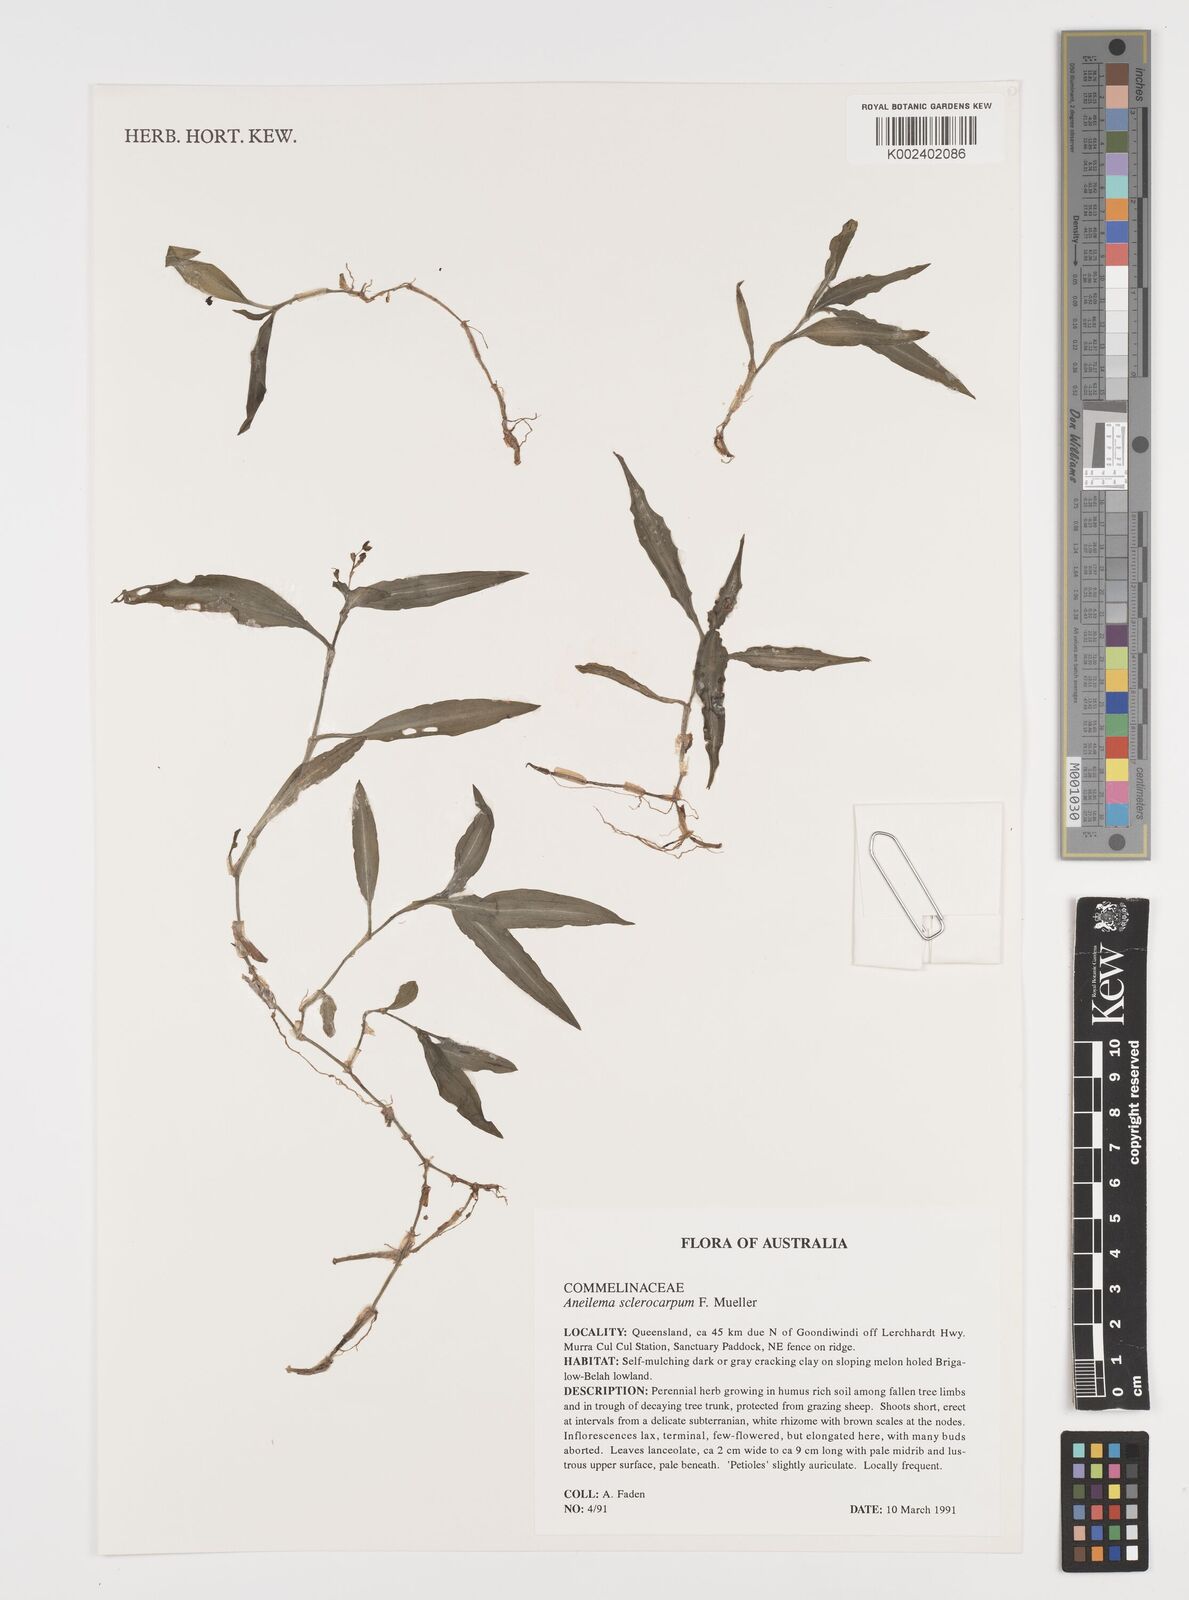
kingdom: Plantae
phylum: Tracheophyta
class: Liliopsida
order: Commelinales
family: Commelinaceae
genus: Aneilema
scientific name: Aneilema sclerocarpum
